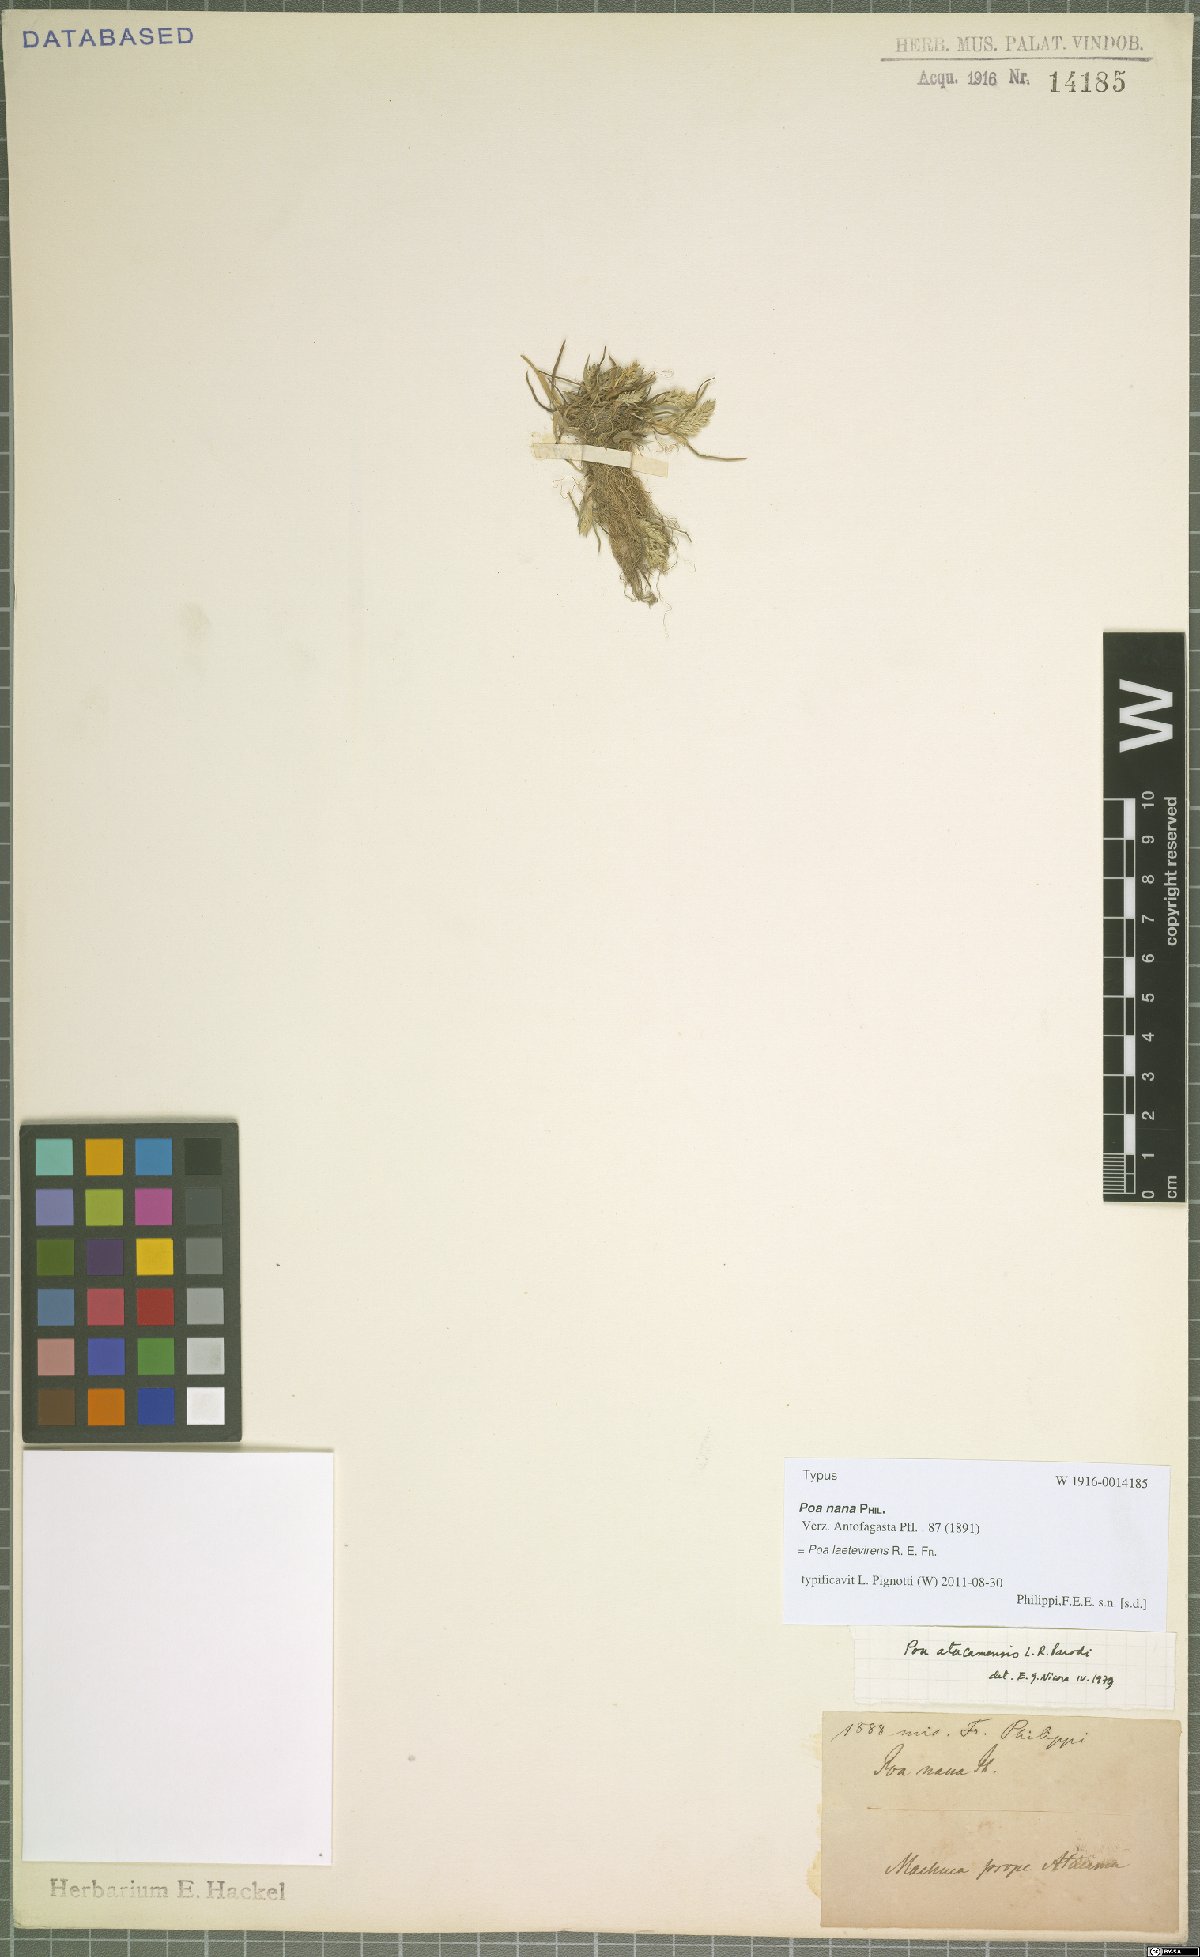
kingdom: Plantae
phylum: Tracheophyta
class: Liliopsida
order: Poales
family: Poaceae
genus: Poa
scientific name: Poa laetevirens
